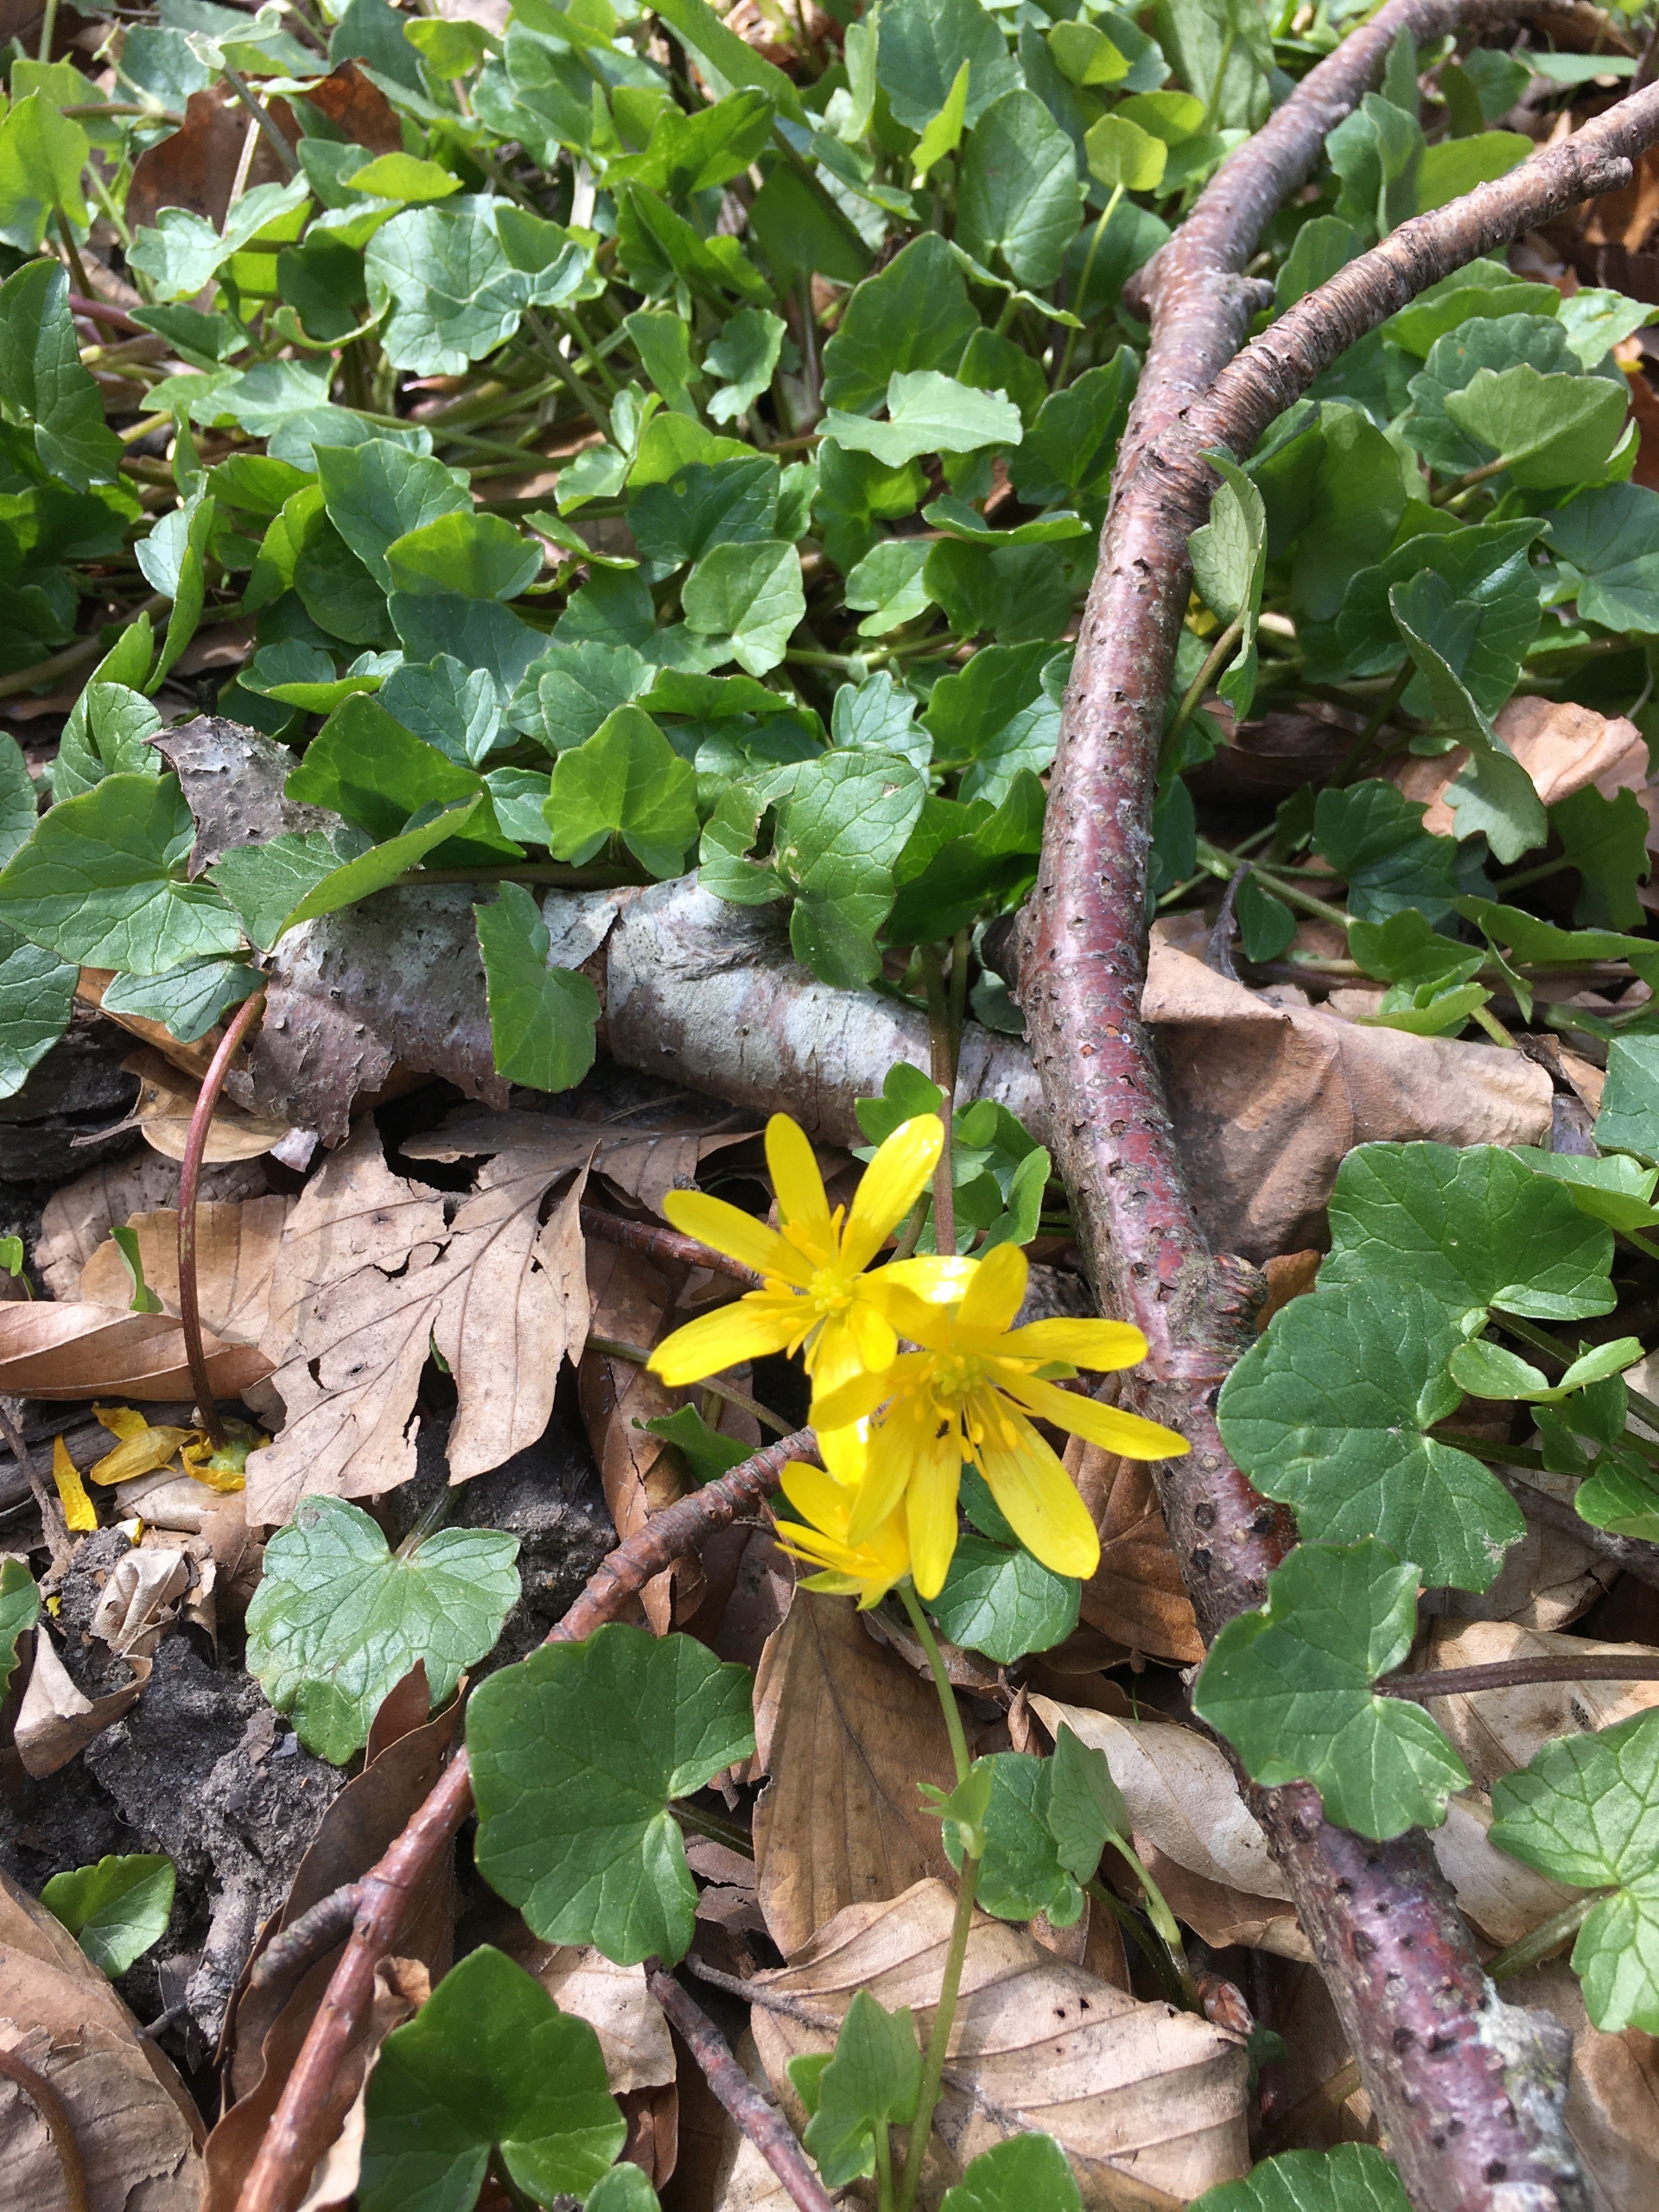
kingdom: Plantae
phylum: Tracheophyta
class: Magnoliopsida
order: Ranunculales
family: Ranunculaceae
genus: Ficaria
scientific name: Ficaria verna
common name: Vorterod
